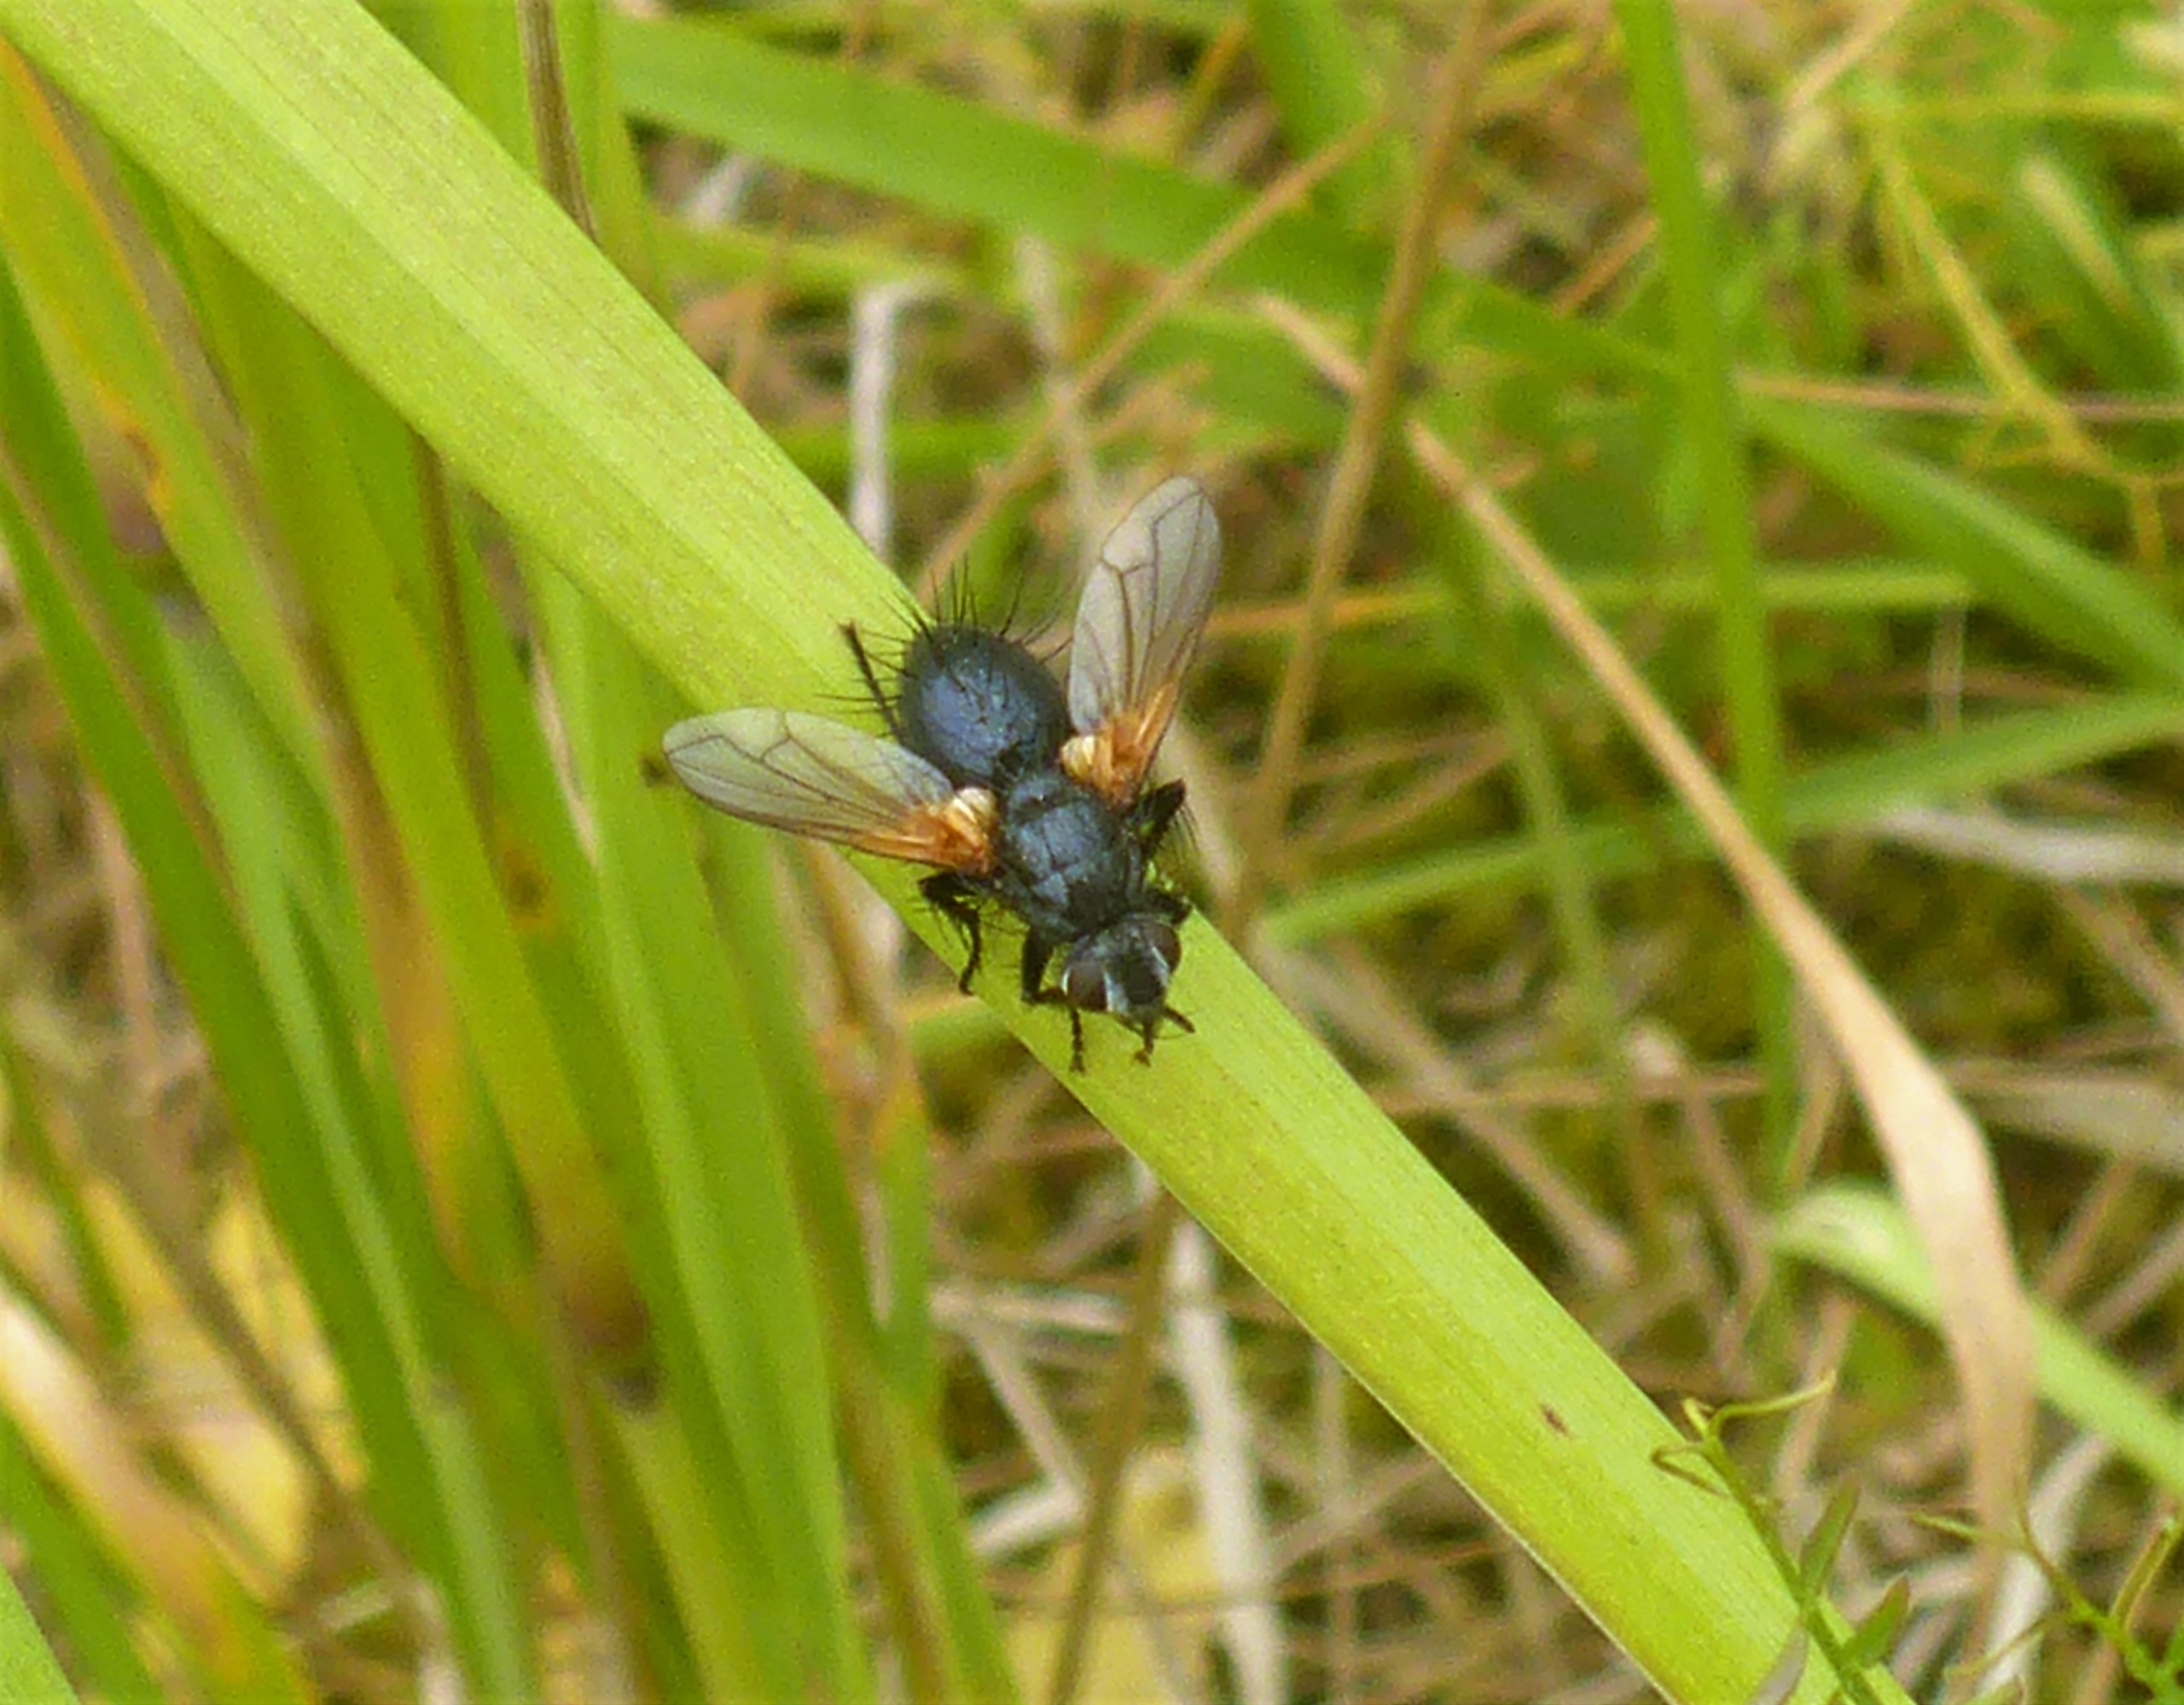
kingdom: Animalia
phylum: Arthropoda
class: Insecta
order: Diptera
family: Tachinidae
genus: Zophomyia
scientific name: Zophomyia temula
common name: Gulvinget snylteflue
